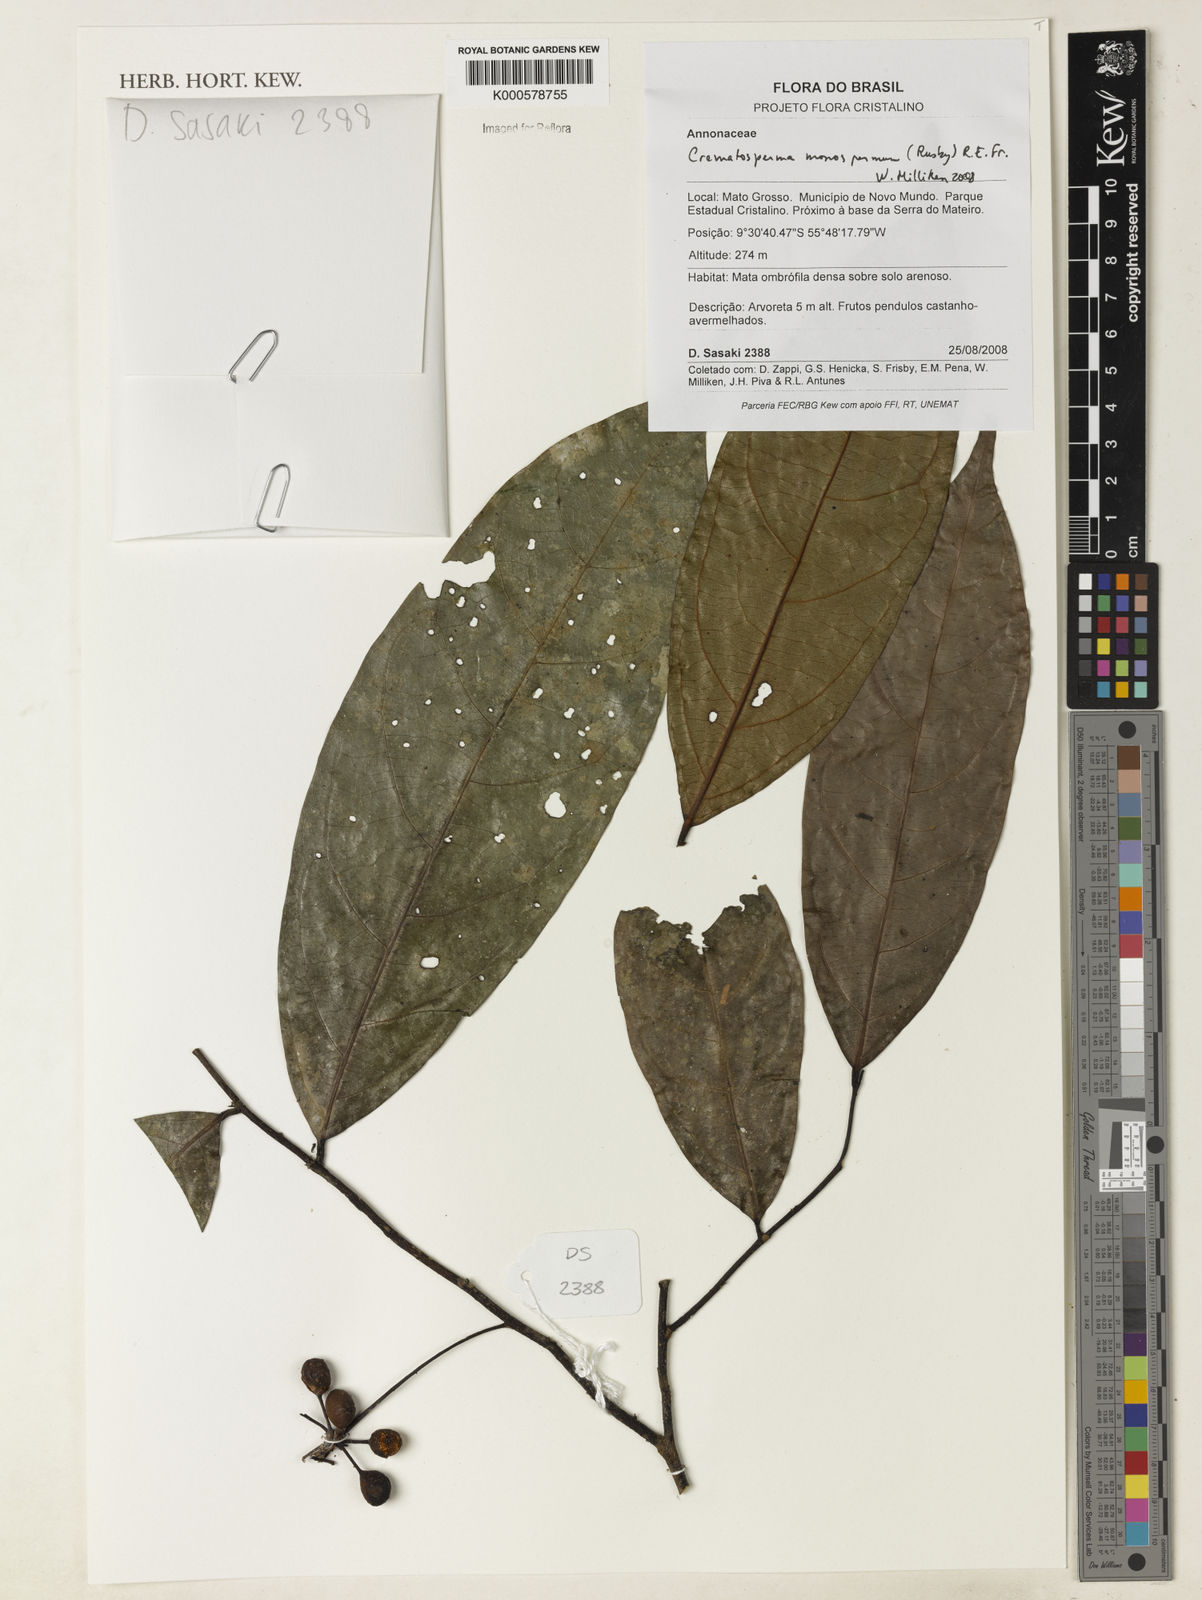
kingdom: Plantae
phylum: Tracheophyta
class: Magnoliopsida
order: Magnoliales
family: Annonaceae
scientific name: Annonaceae
